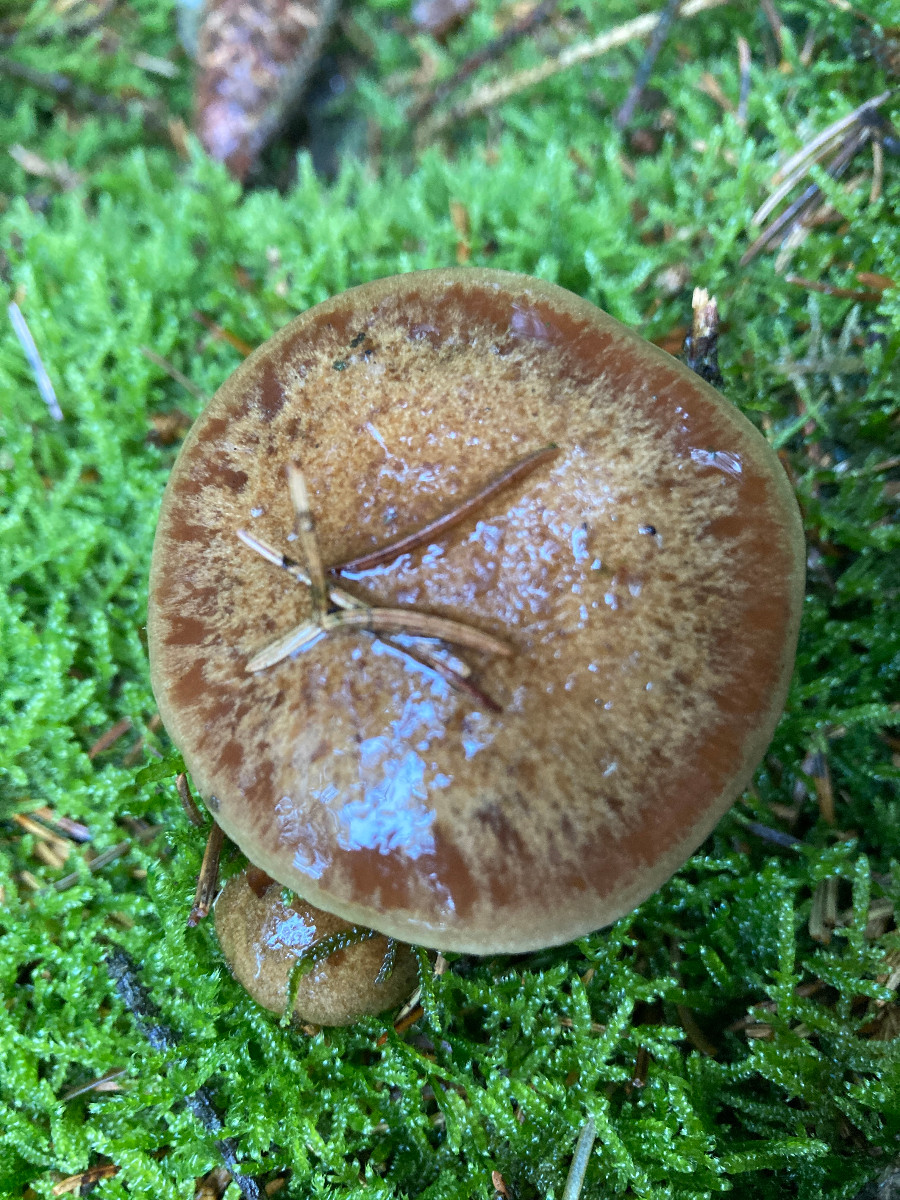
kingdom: Fungi
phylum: Basidiomycota
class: Agaricomycetes
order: Agaricales
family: Cortinariaceae
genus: Thaxterogaster
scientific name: Thaxterogaster sphagnophilus
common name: vandplettet slørhat
